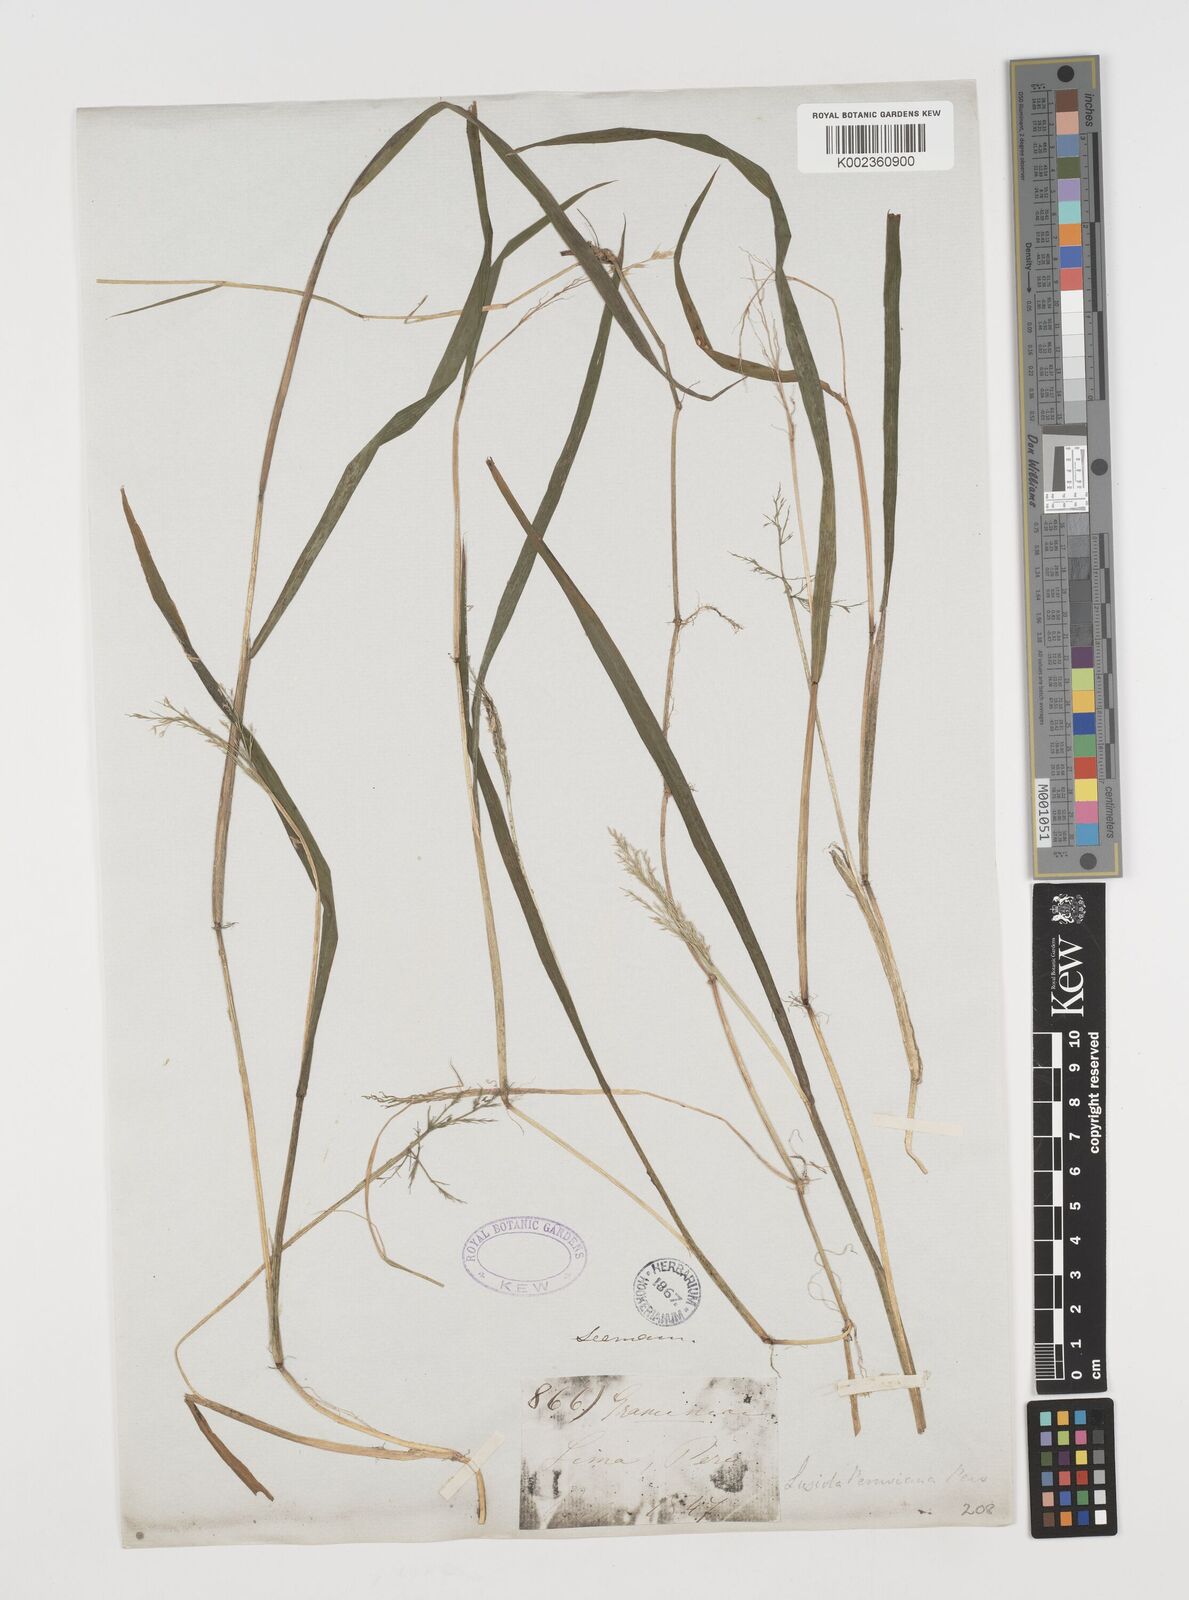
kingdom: Plantae
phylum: Tracheophyta
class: Liliopsida
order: Poales
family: Poaceae
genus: Luziola
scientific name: Luziola peruviana
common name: Peruvian watergrass
